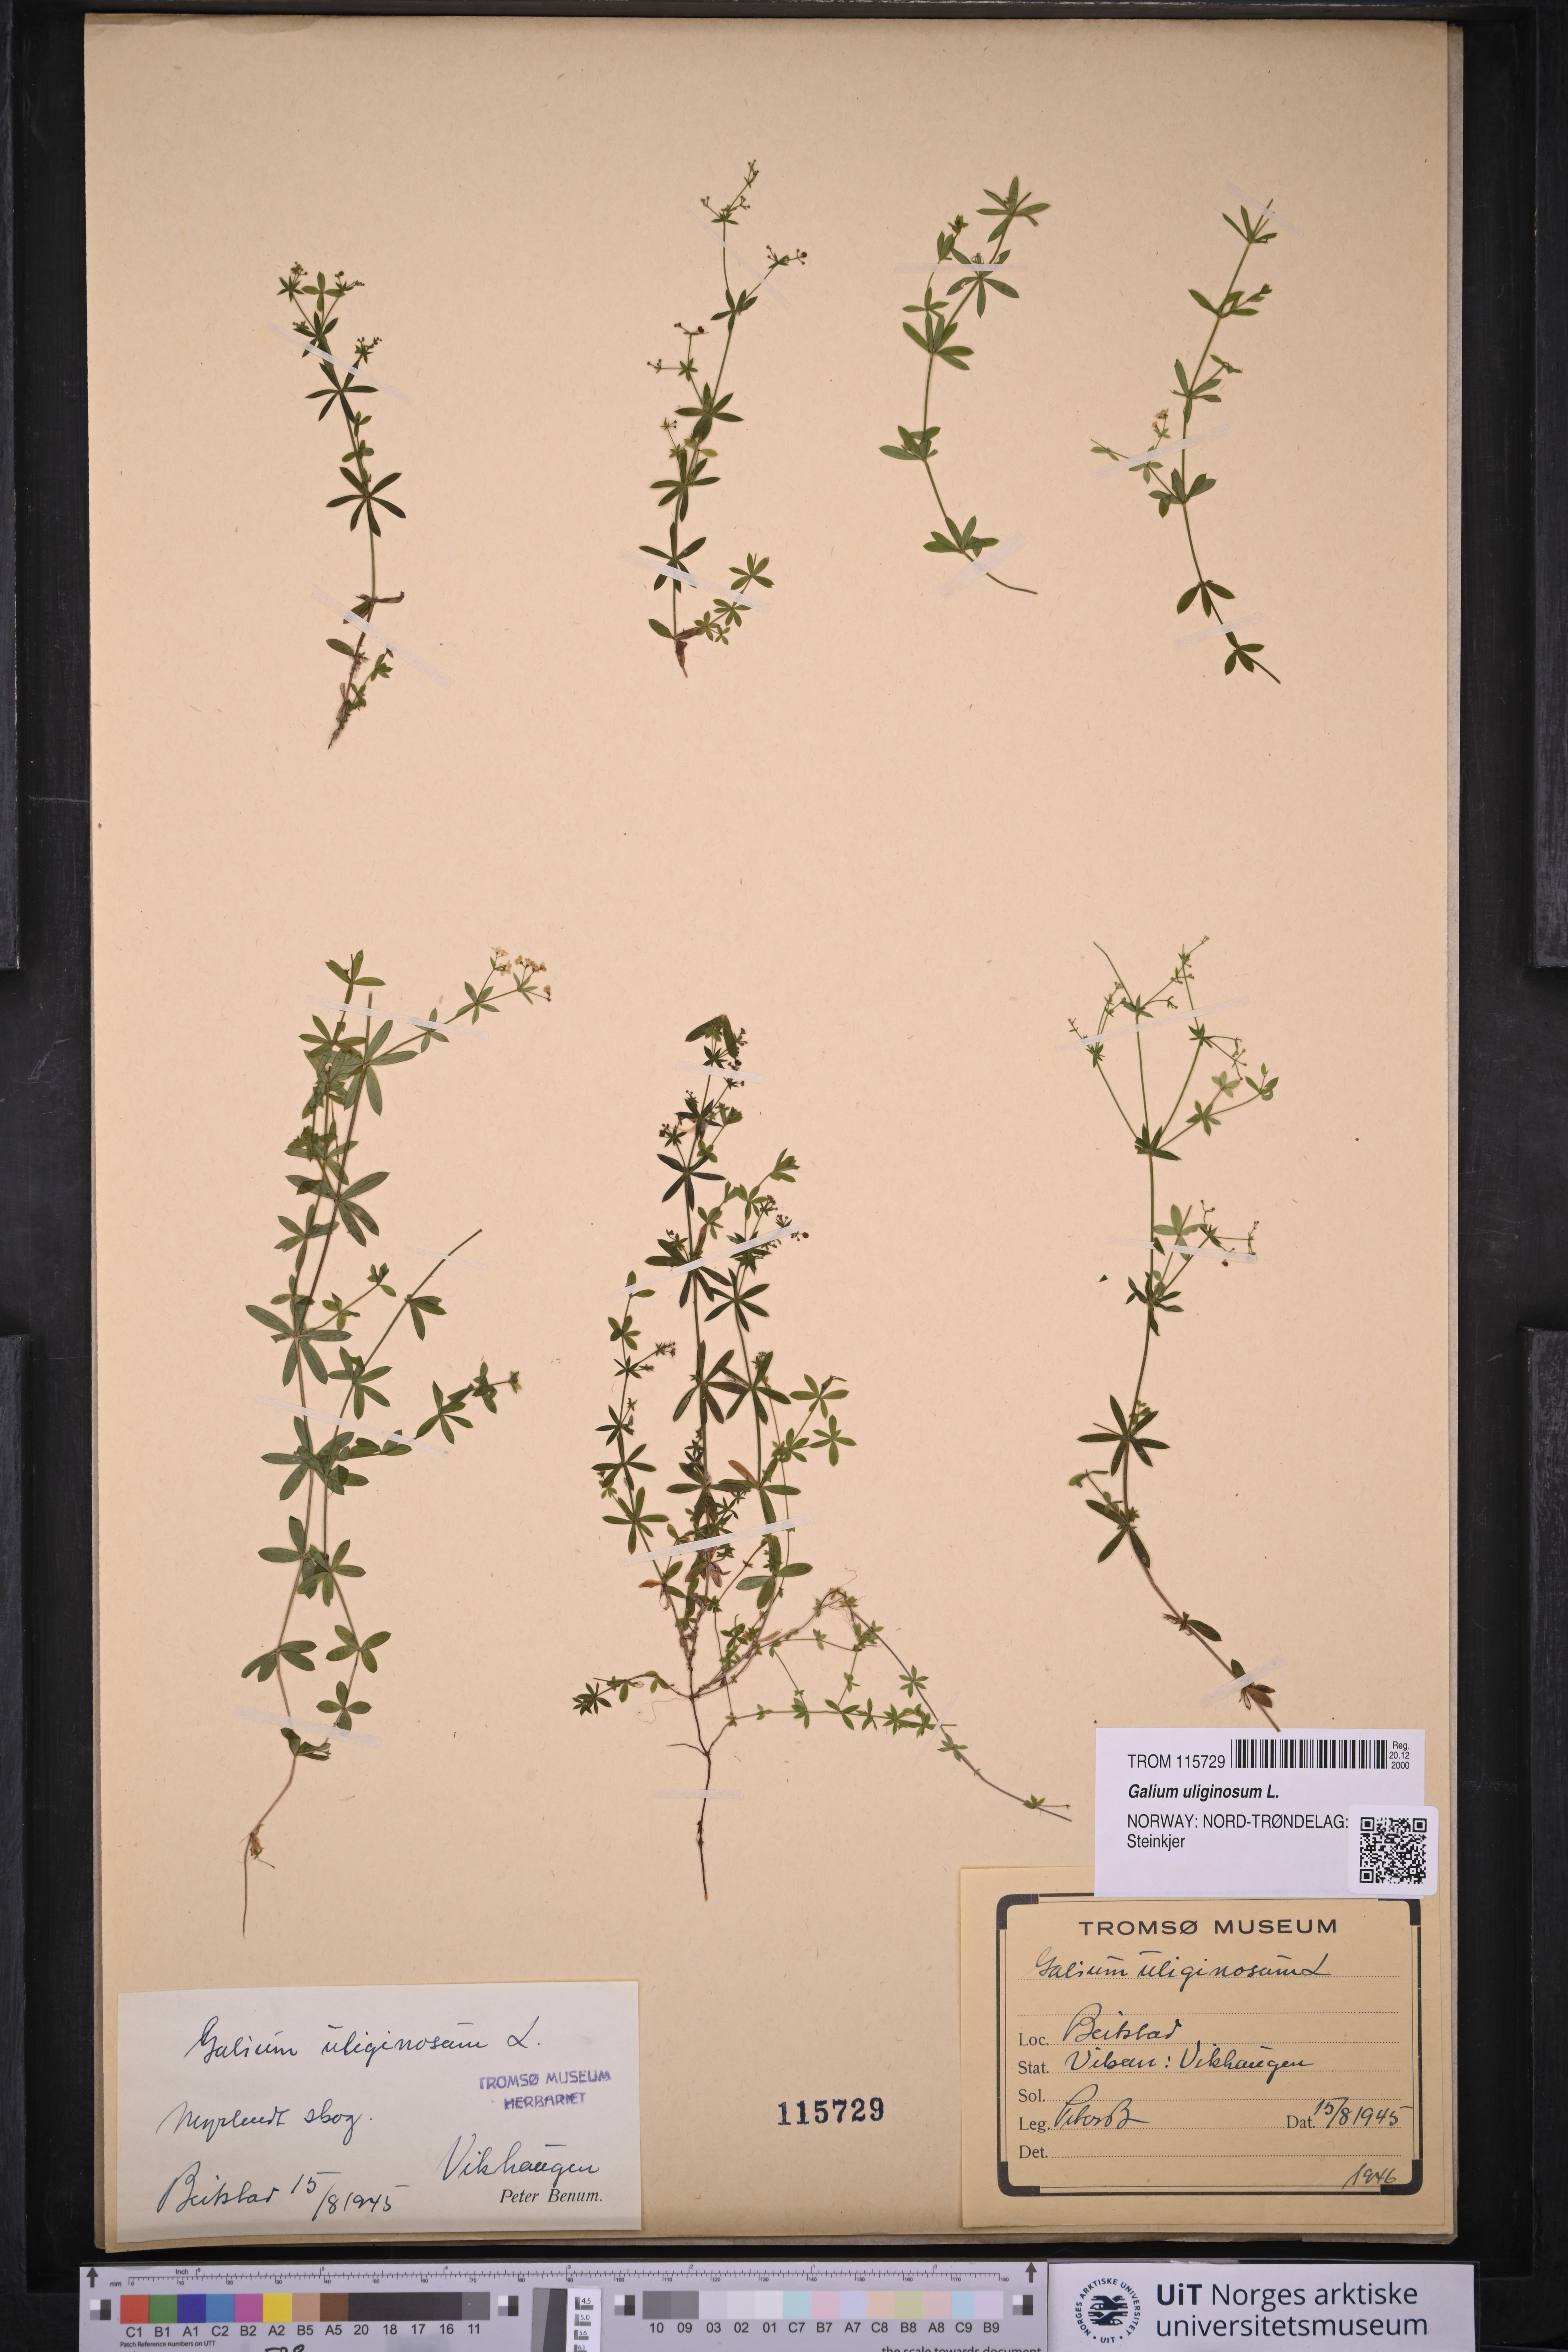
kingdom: Plantae
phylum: Tracheophyta
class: Magnoliopsida
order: Gentianales
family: Rubiaceae
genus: Galium
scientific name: Galium uliginosum
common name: Fen bedstraw
